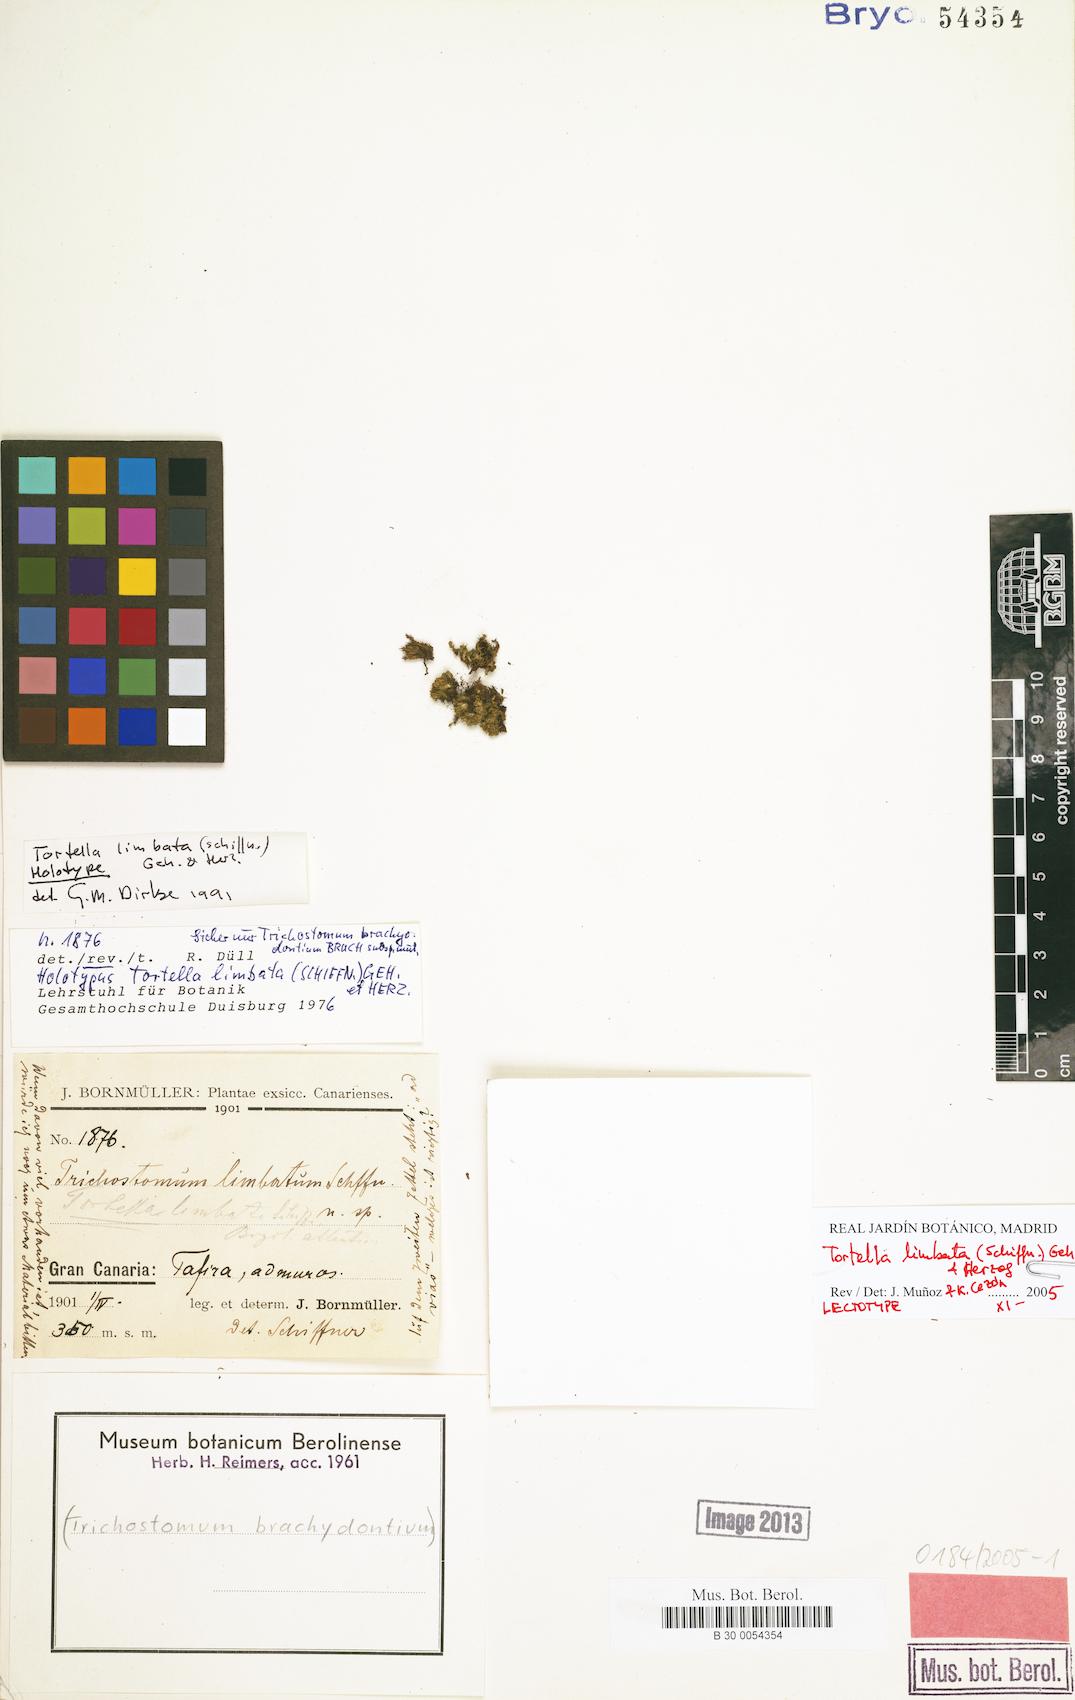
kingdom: Plantae
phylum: Bryophyta
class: Bryopsida
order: Pottiales
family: Pottiaceae
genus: Tortella
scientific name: Tortella limbata
